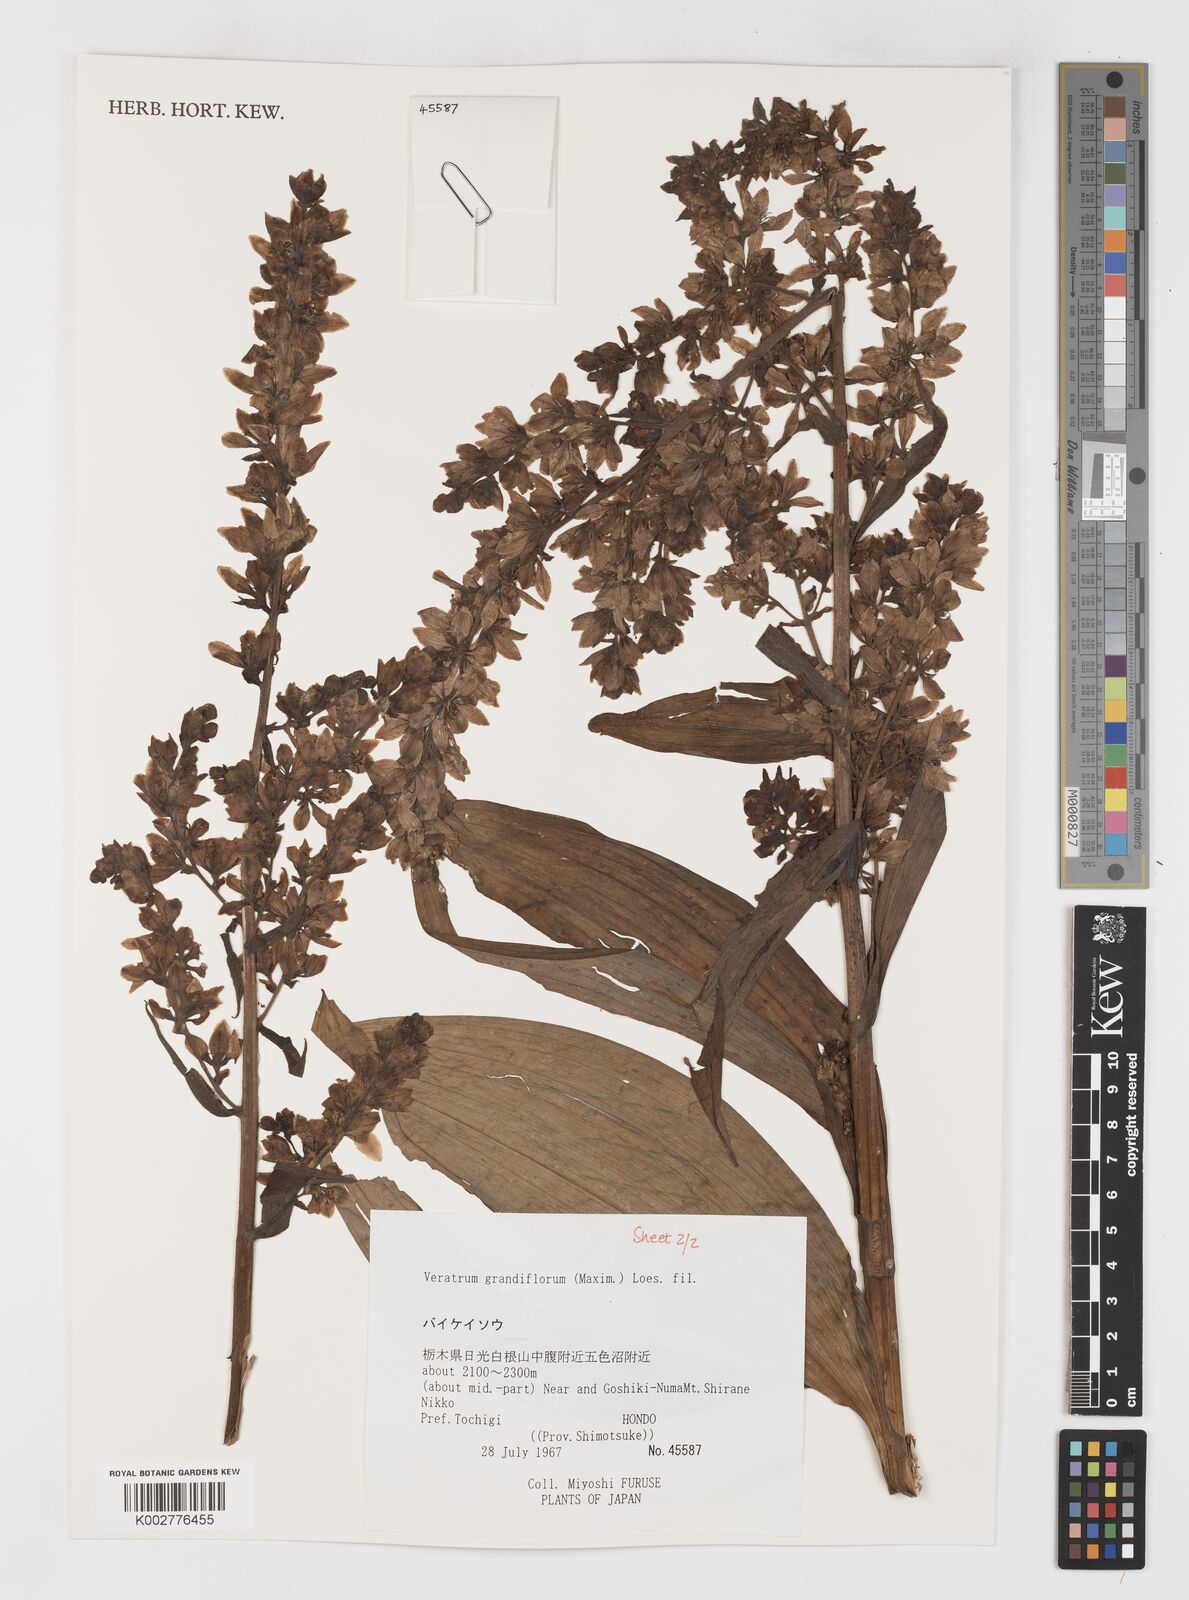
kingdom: Plantae
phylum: Tracheophyta
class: Liliopsida
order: Liliales
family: Melanthiaceae
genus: Veratrum
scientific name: Veratrum album
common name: White veratrum
